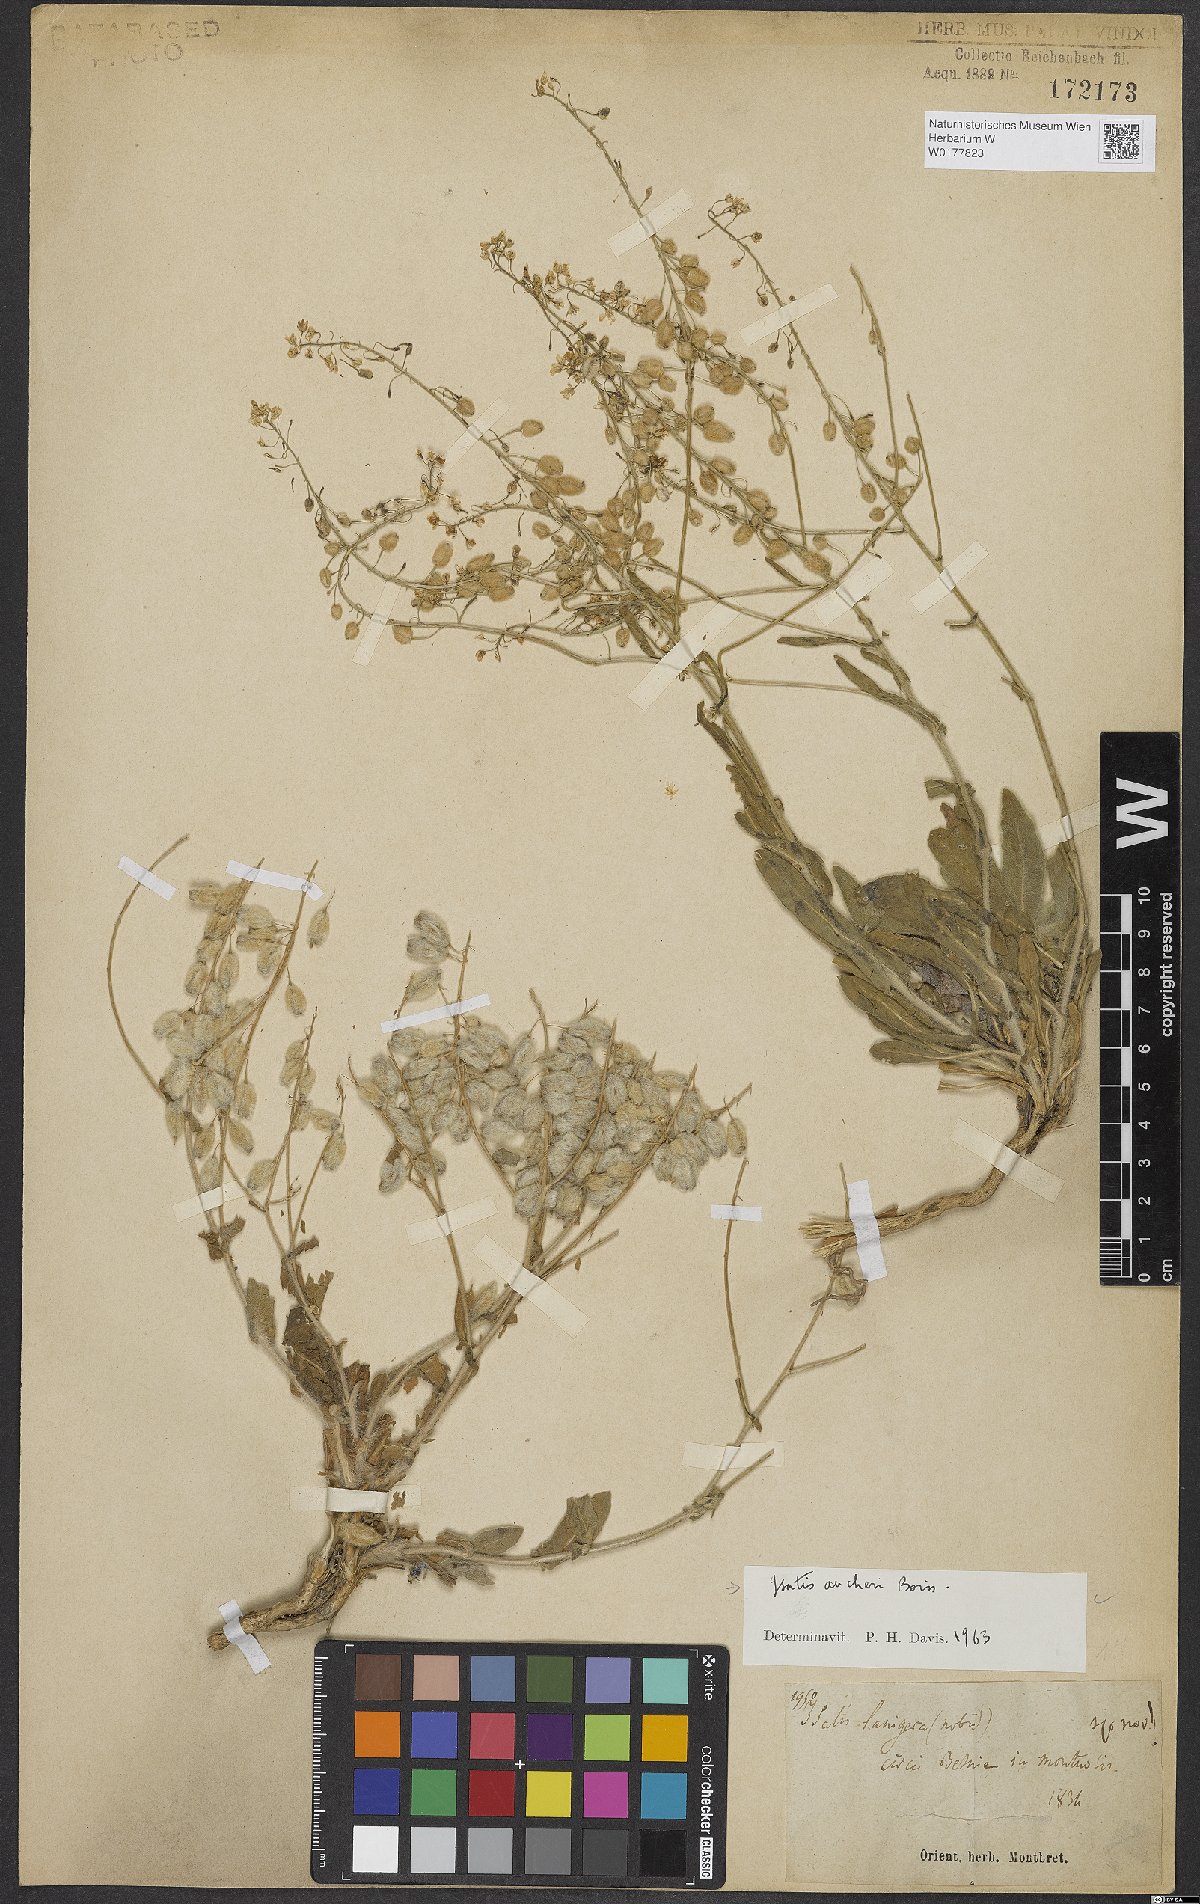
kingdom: Plantae
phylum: Tracheophyta
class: Magnoliopsida
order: Brassicales
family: Brassicaceae
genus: Isatis
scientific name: Isatis aucheri
